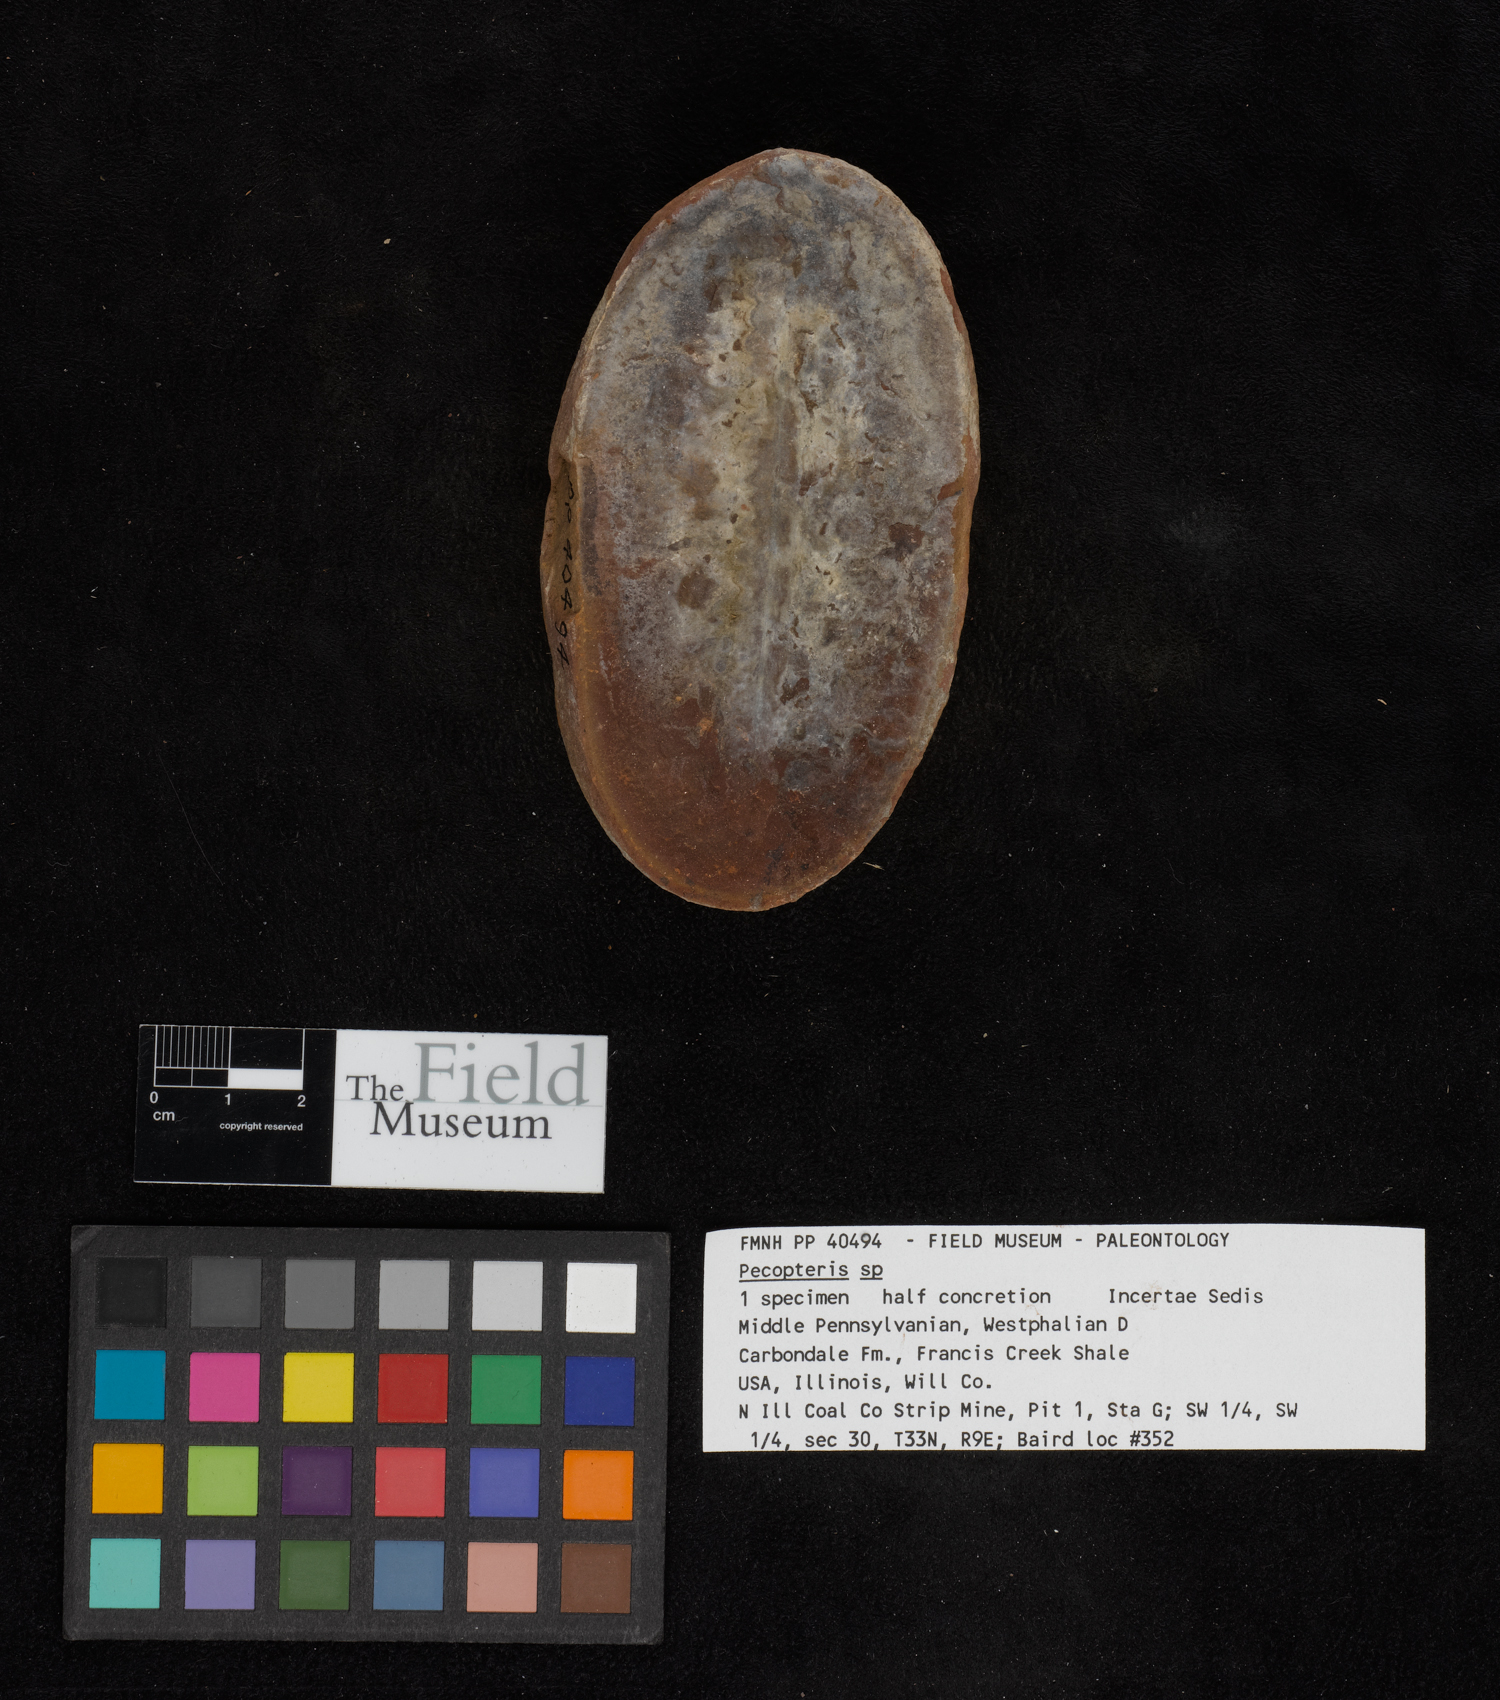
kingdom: Plantae
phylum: Tracheophyta
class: Polypodiopsida
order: Marattiales
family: Asterothecaceae
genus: Pecopteris
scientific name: Pecopteris
